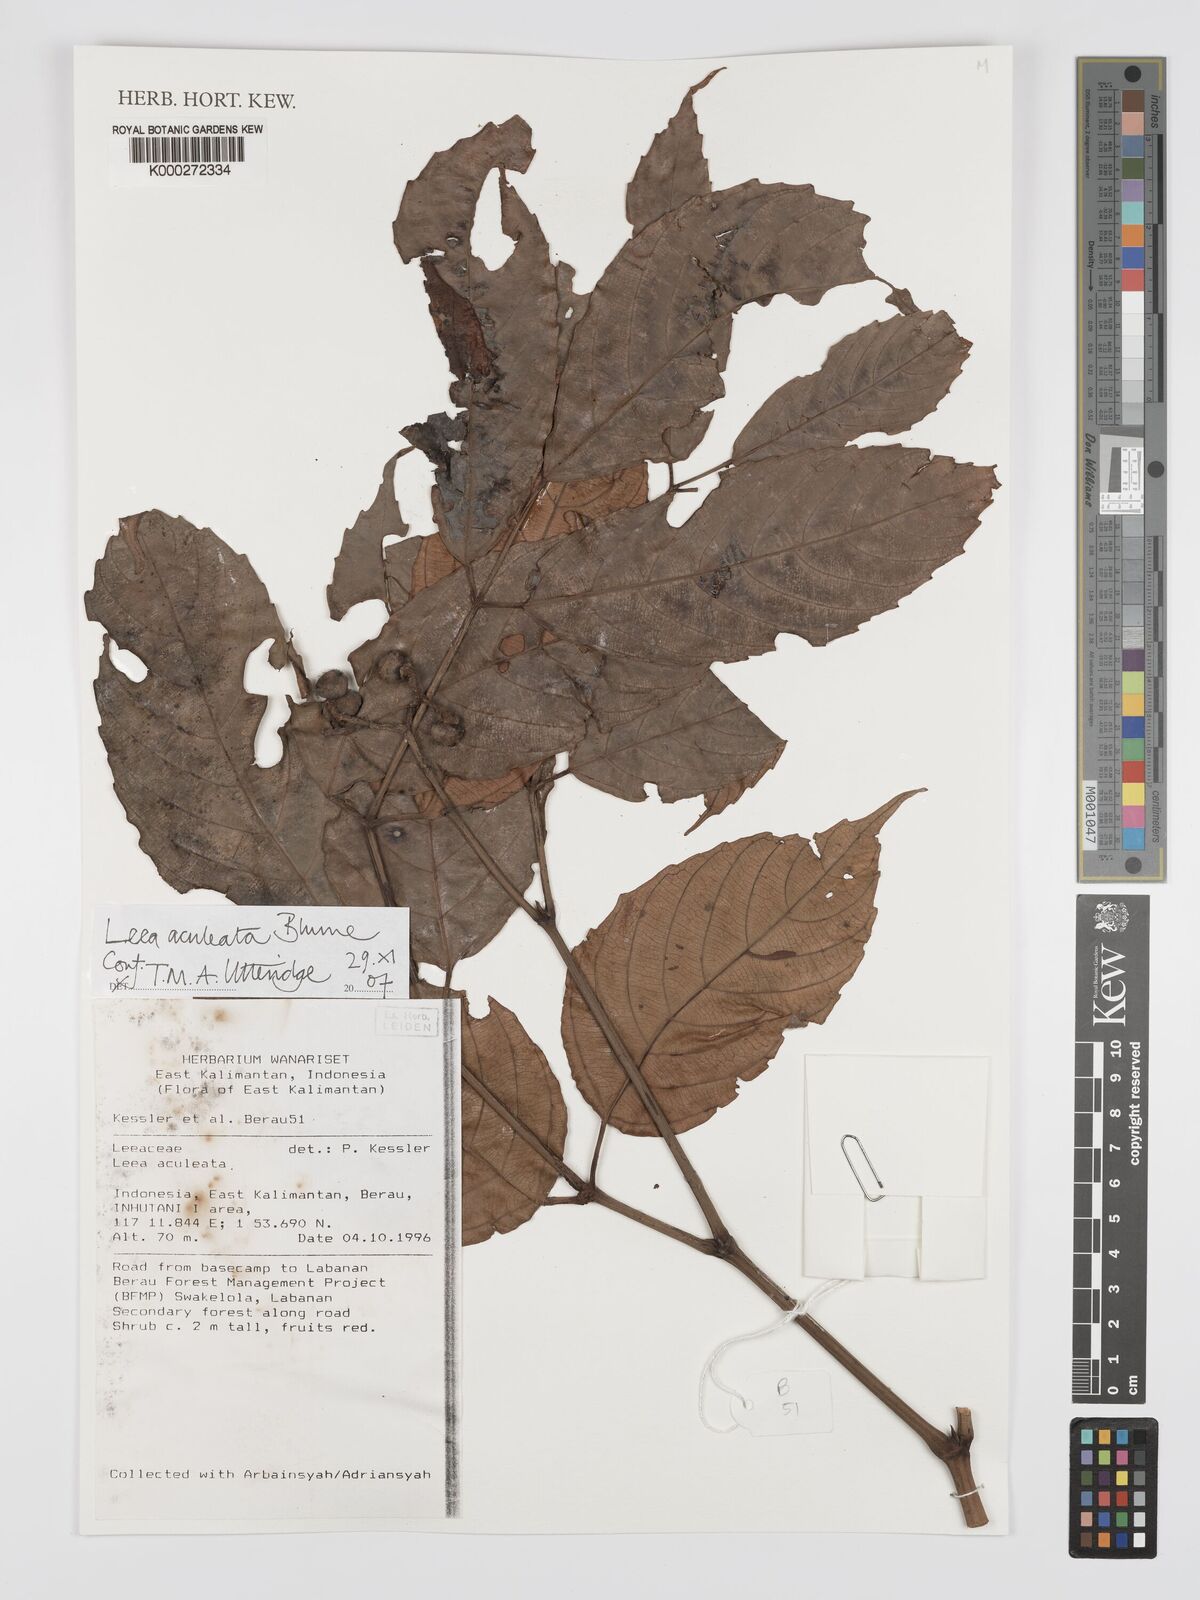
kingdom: Plantae
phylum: Tracheophyta
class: Magnoliopsida
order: Vitales
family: Vitaceae
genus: Leea
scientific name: Leea aculeata
